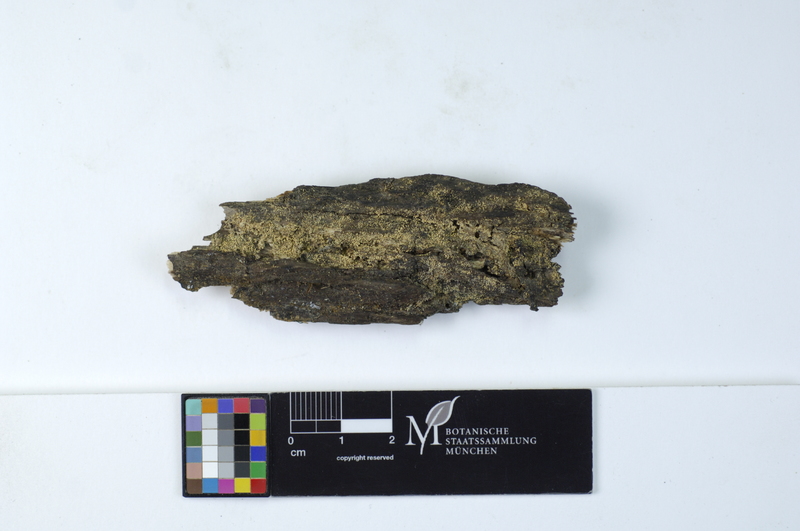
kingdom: Fungi
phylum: Basidiomycota
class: Agaricomycetes
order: Polyporales
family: Meruliaceae
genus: Bulbillomyces
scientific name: Bulbillomyces farinosus
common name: Couscous crust
